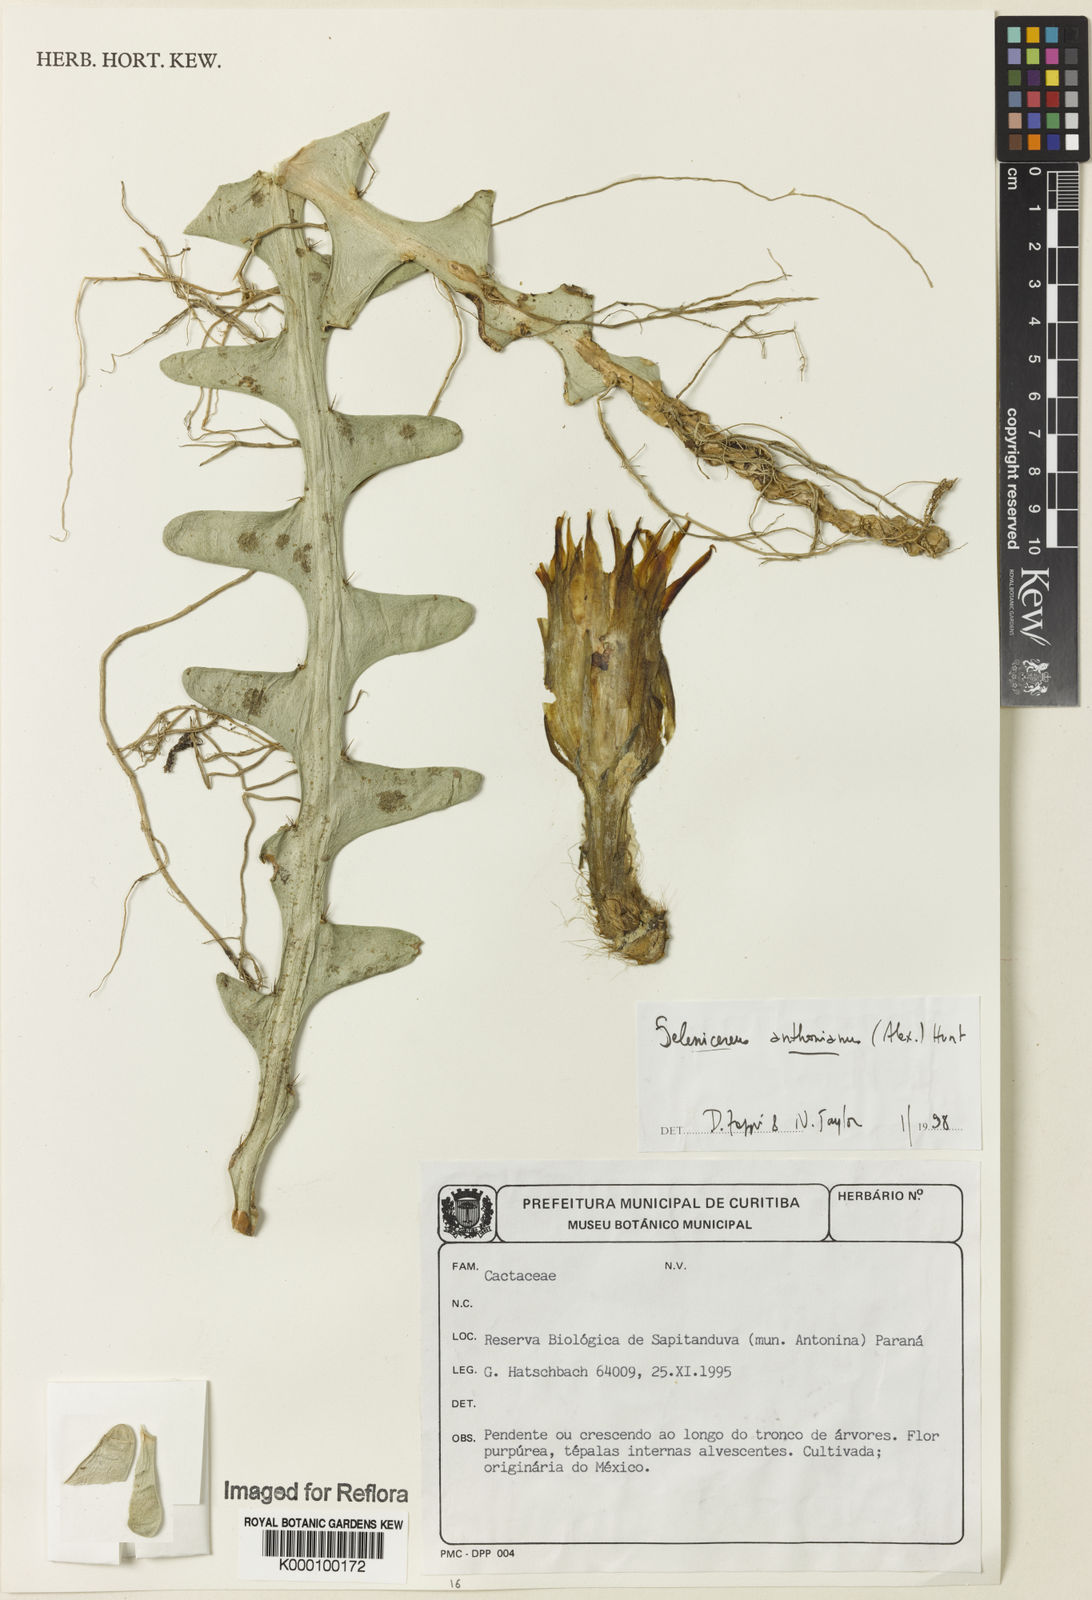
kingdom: Plantae
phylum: Tracheophyta
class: Magnoliopsida
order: Caryophyllales
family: Cactaceae
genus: Selenicereus
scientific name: Selenicereus anthonyanus
